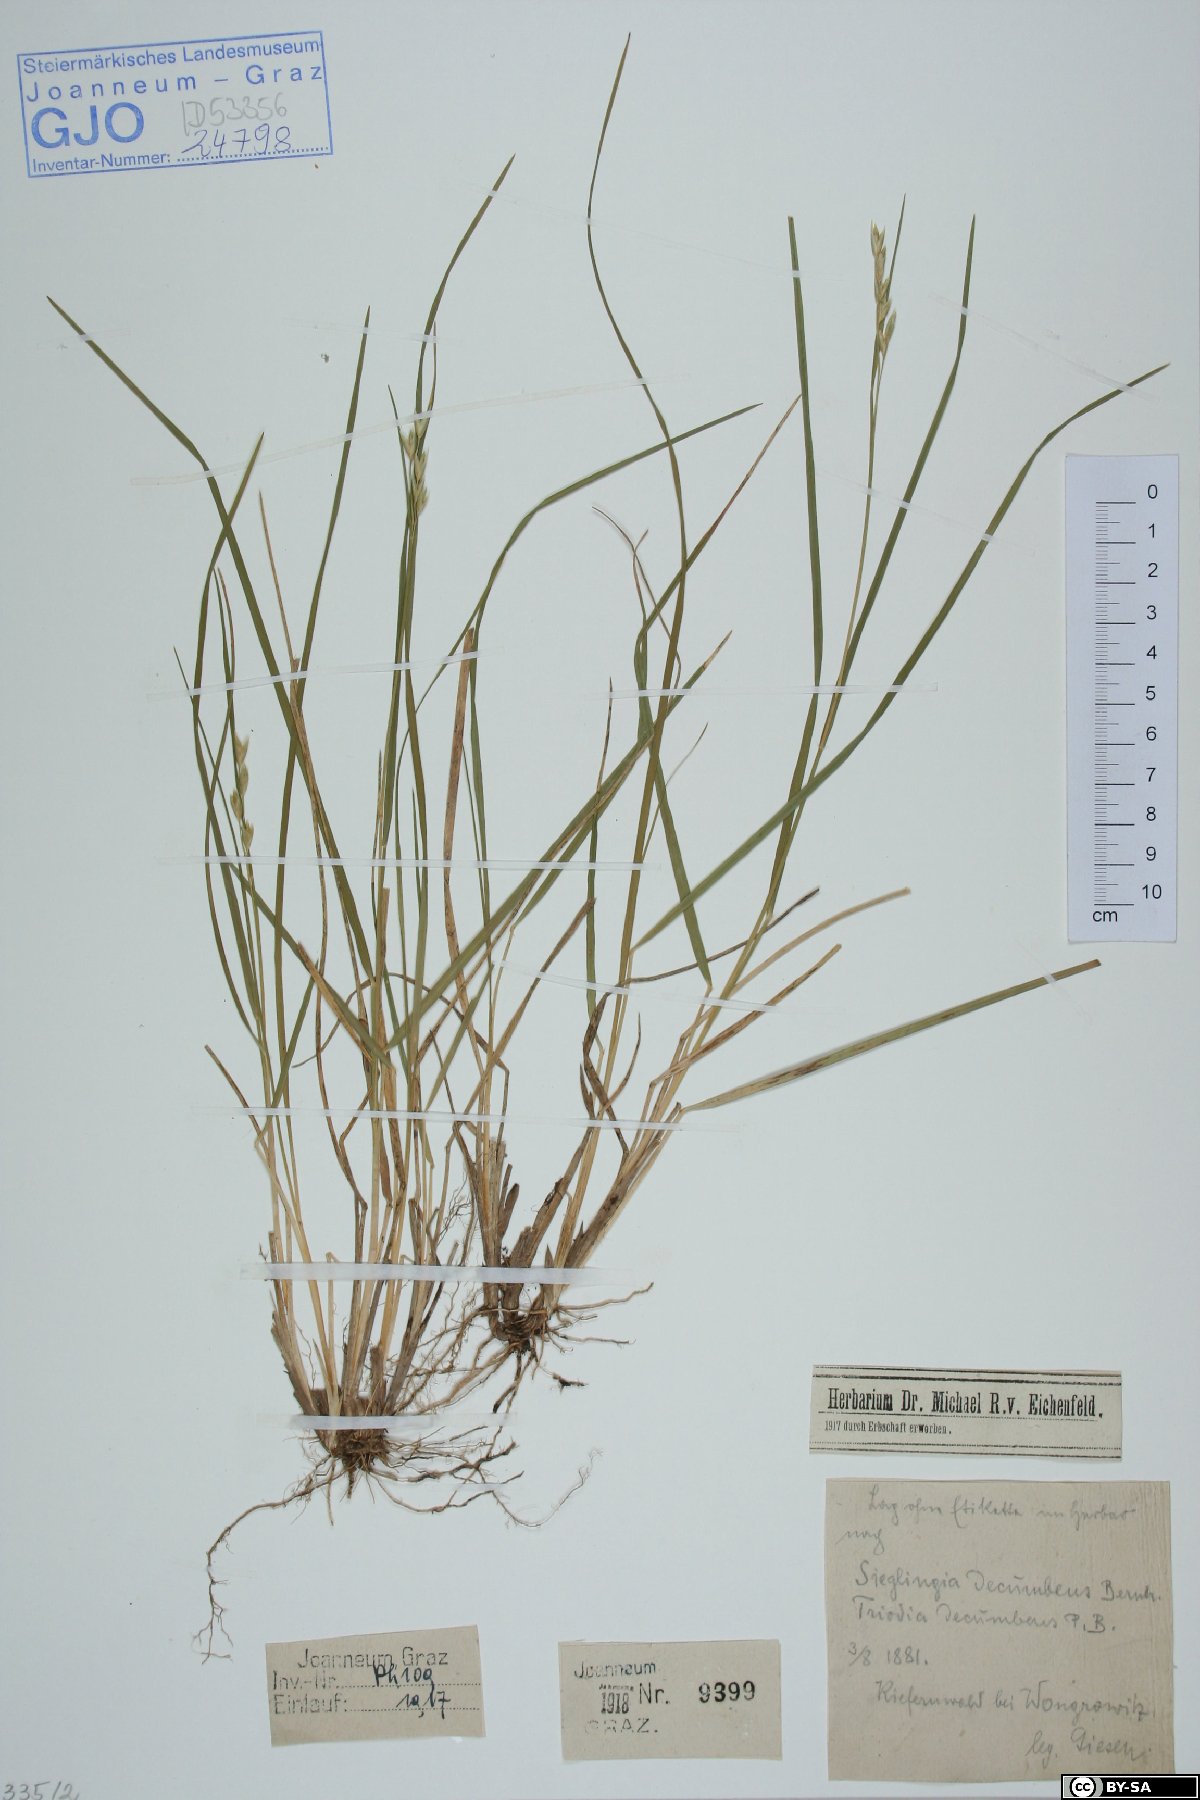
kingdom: Plantae
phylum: Tracheophyta
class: Liliopsida
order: Poales
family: Poaceae
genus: Danthonia
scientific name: Danthonia decumbens
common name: Common heathgrass
